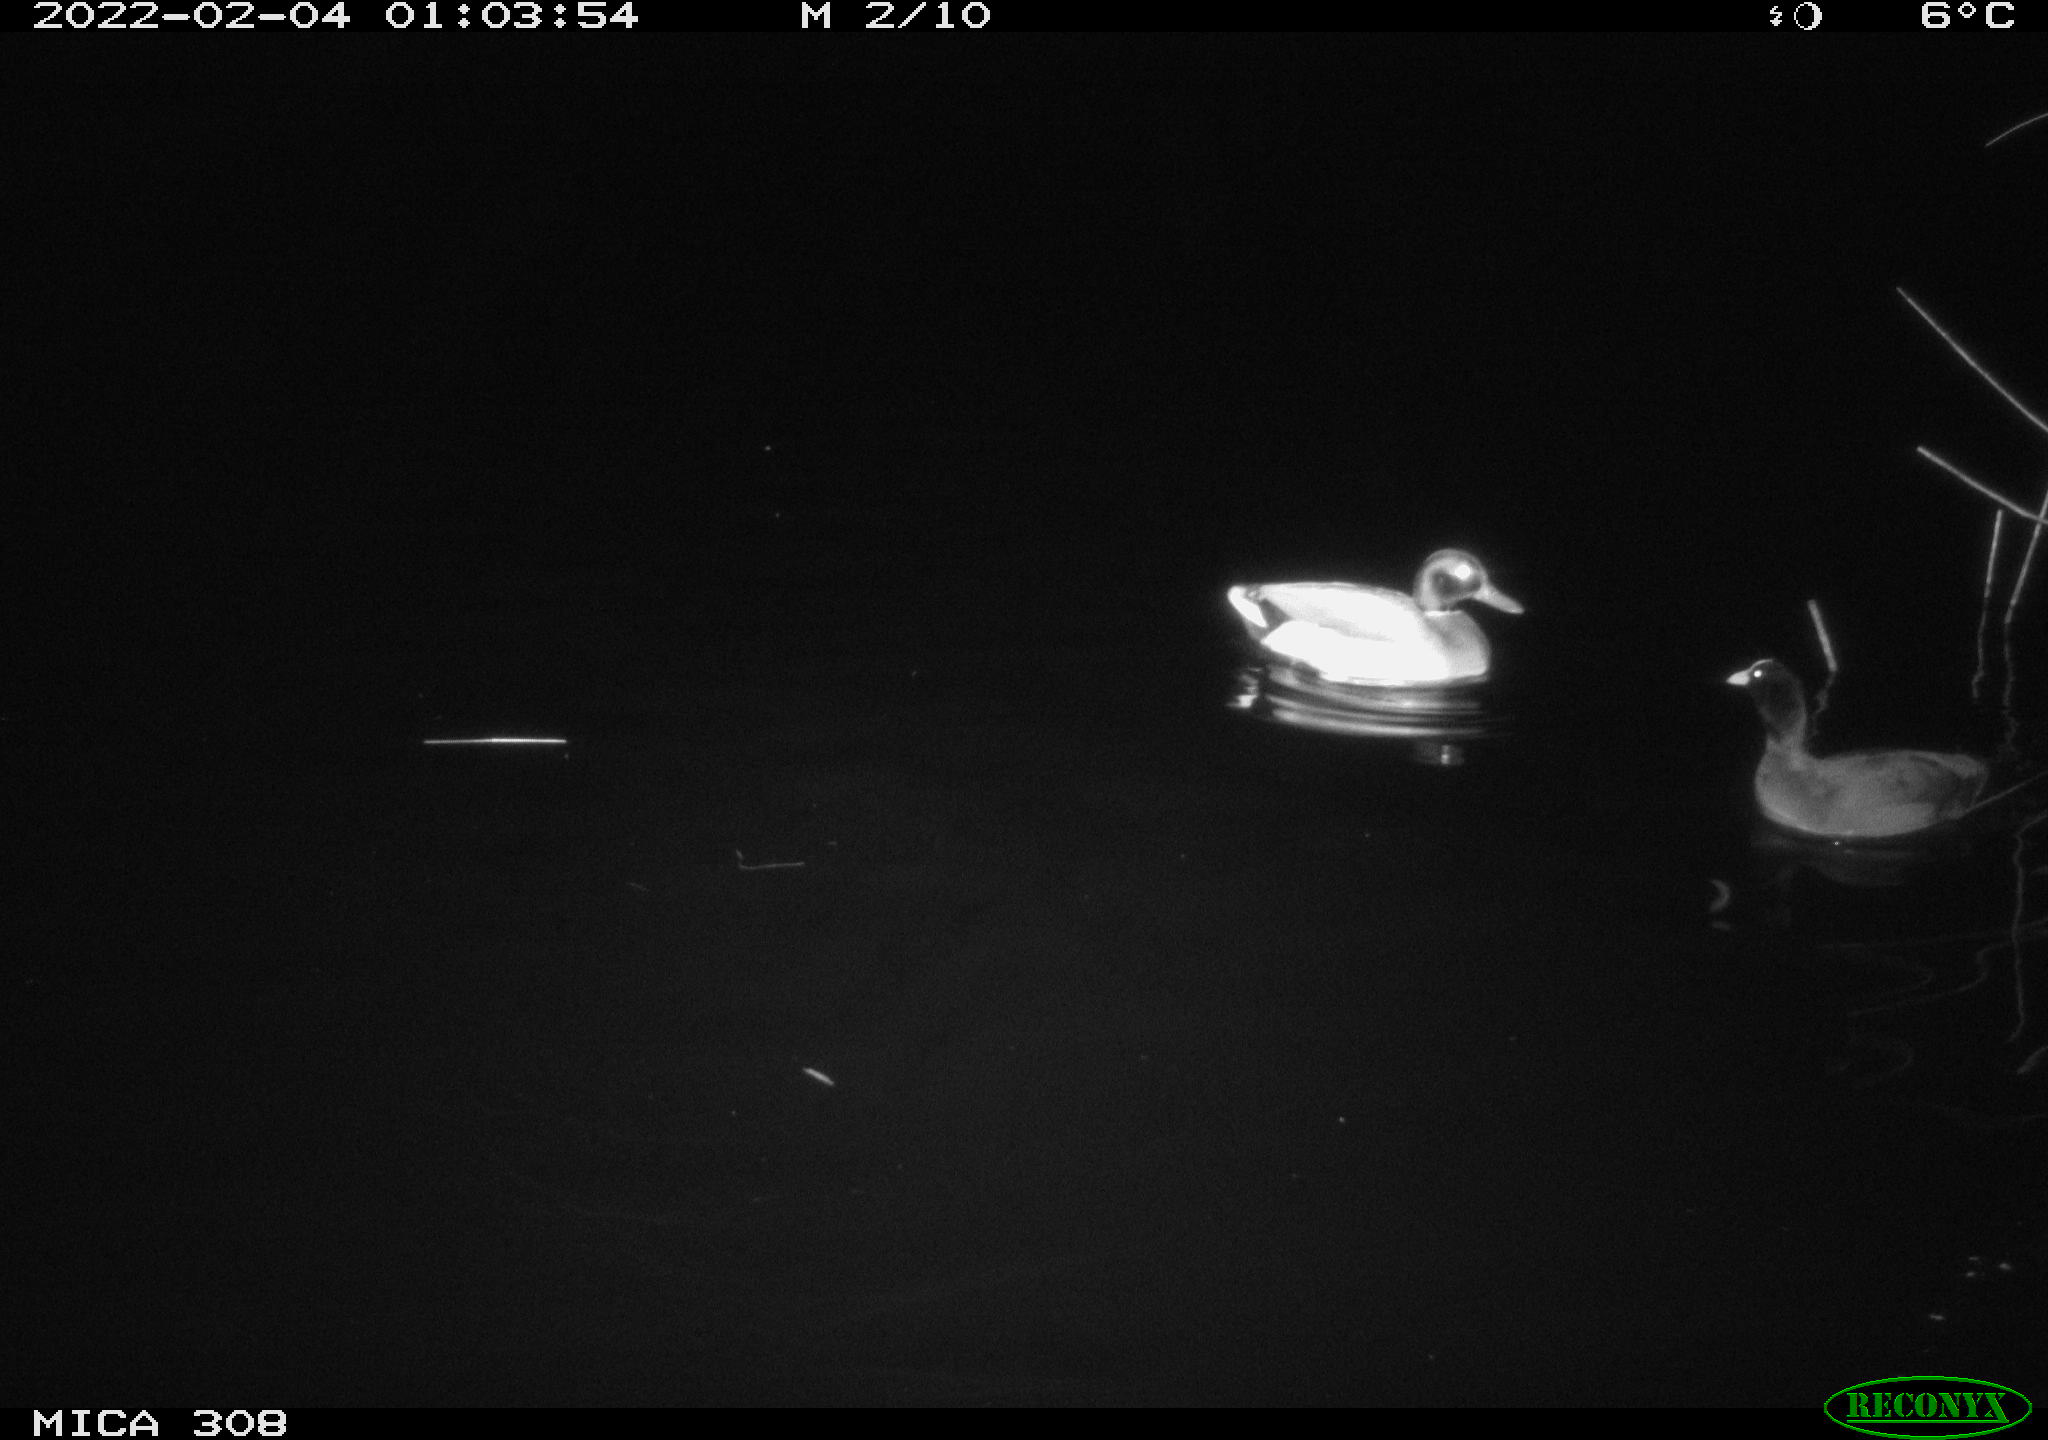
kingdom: Animalia
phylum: Chordata
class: Aves
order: Gruiformes
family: Rallidae
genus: Fulica
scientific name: Fulica atra
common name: Eurasian coot
